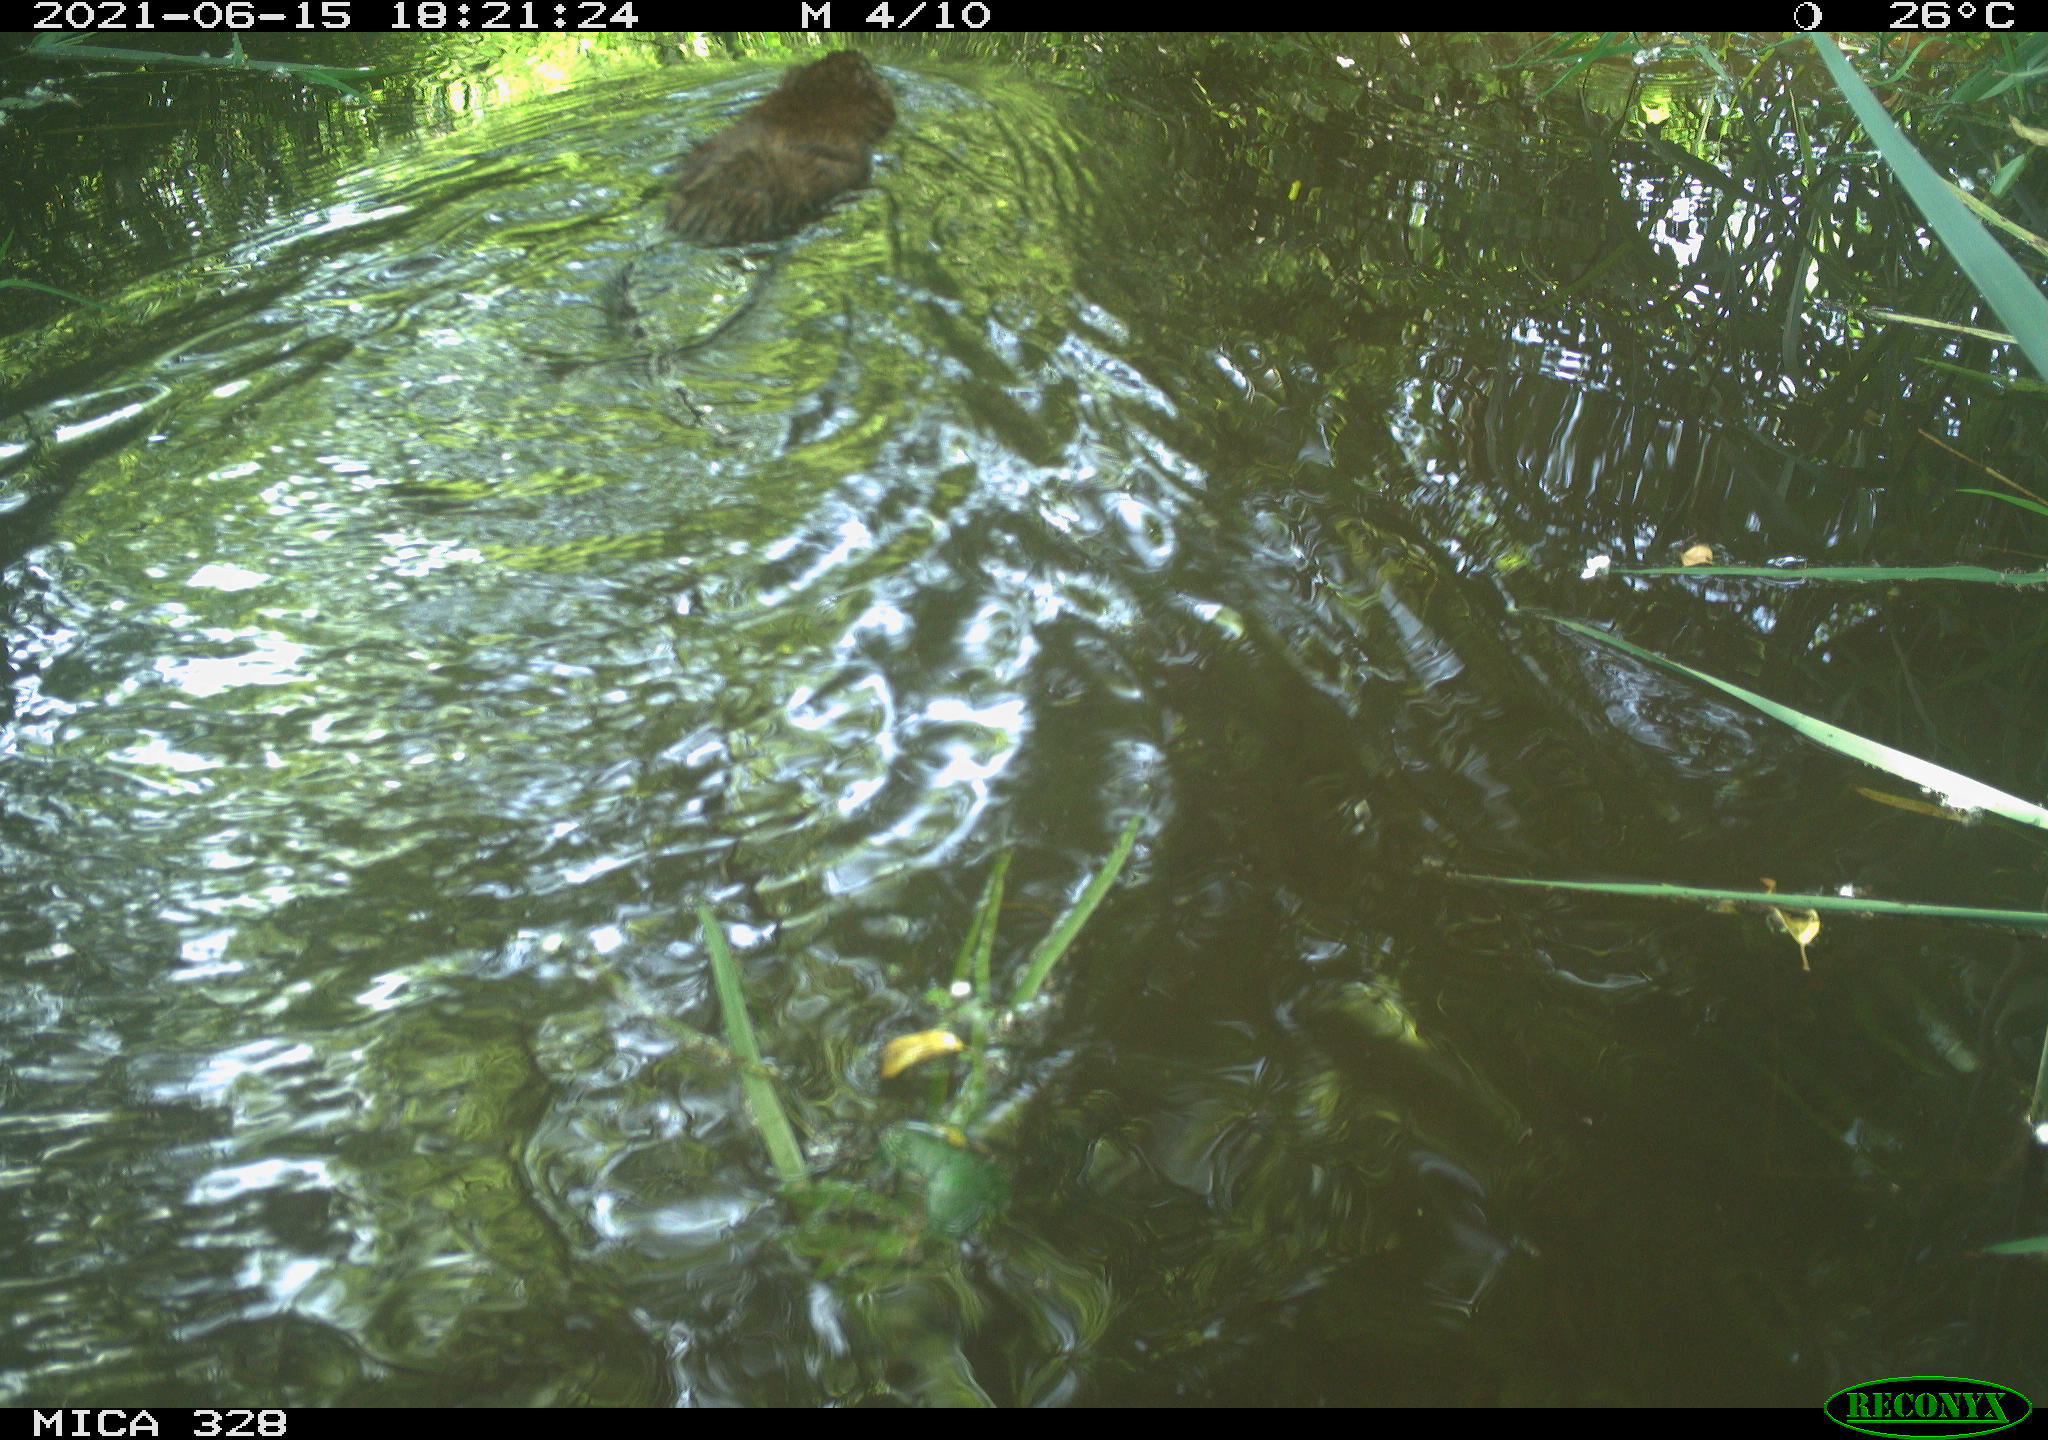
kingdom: Animalia
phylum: Chordata
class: Mammalia
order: Rodentia
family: Cricetidae
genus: Ondatra
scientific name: Ondatra zibethicus
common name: Muskrat
